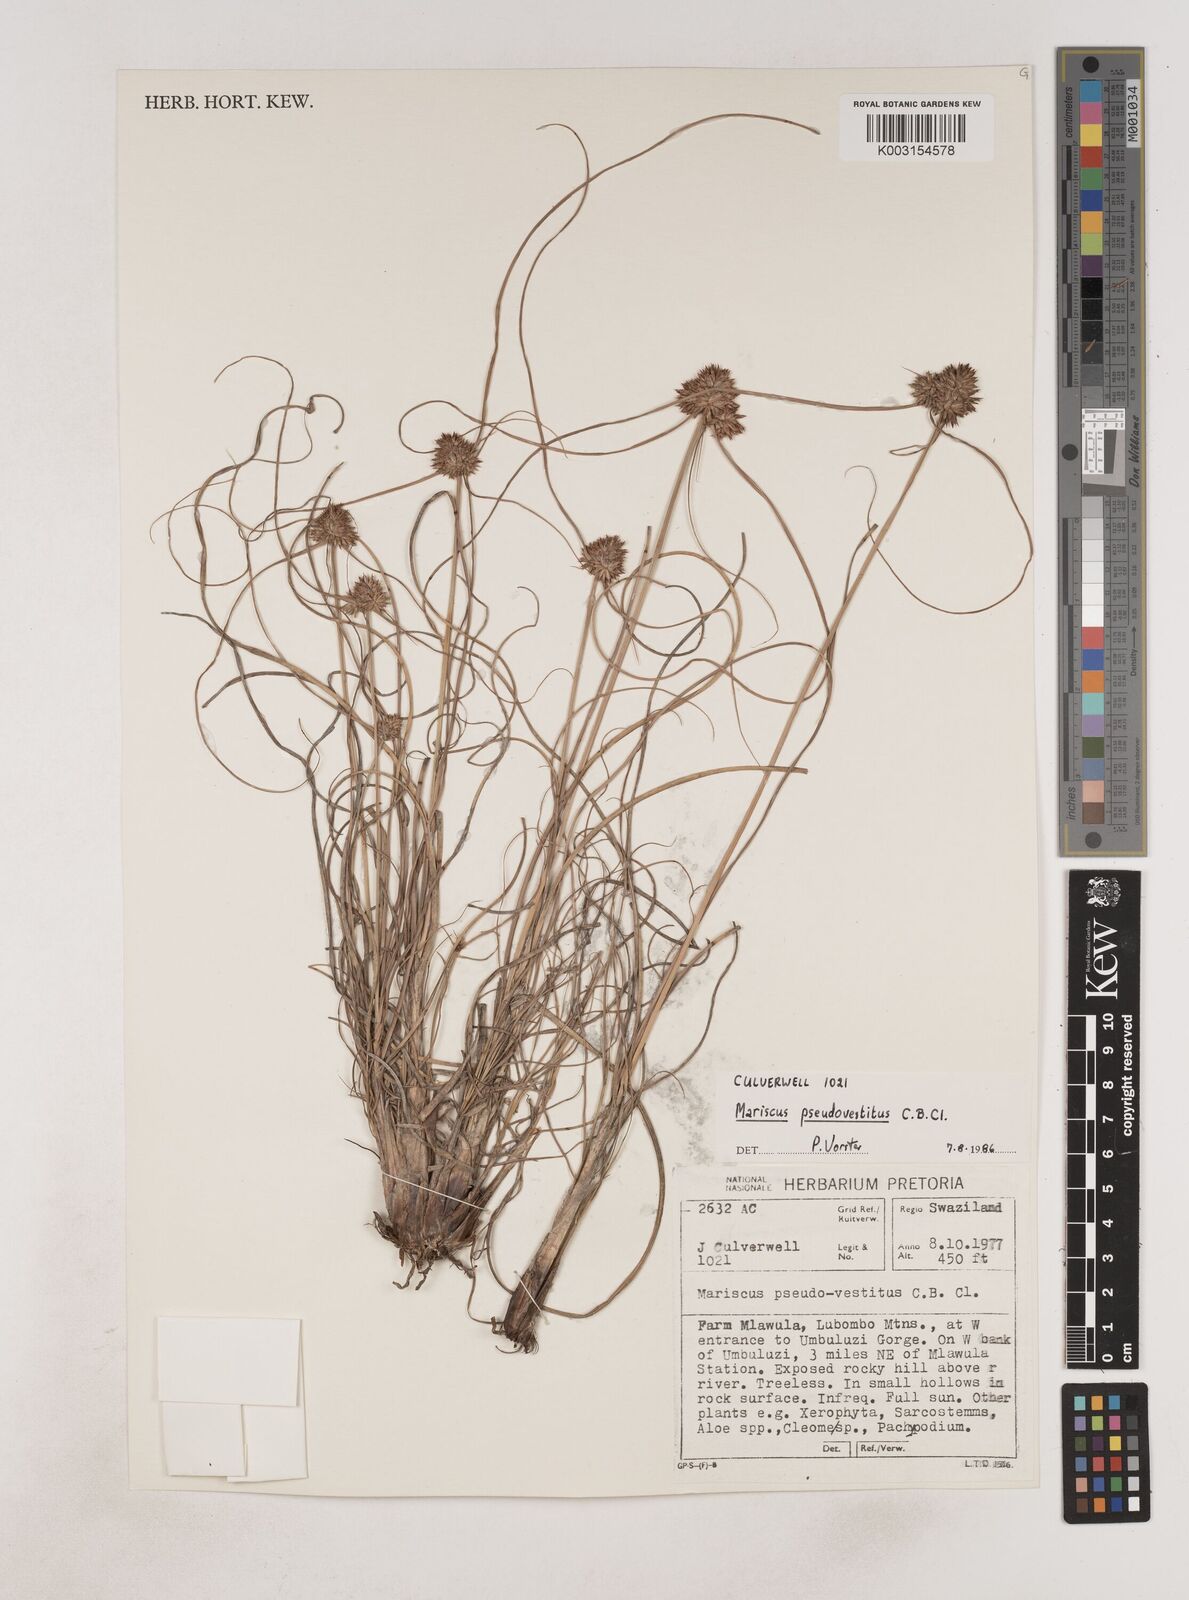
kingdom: Plantae
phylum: Tracheophyta
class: Liliopsida
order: Poales
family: Cyperaceae
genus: Cyperus
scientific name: Cyperus pseudovestitus
